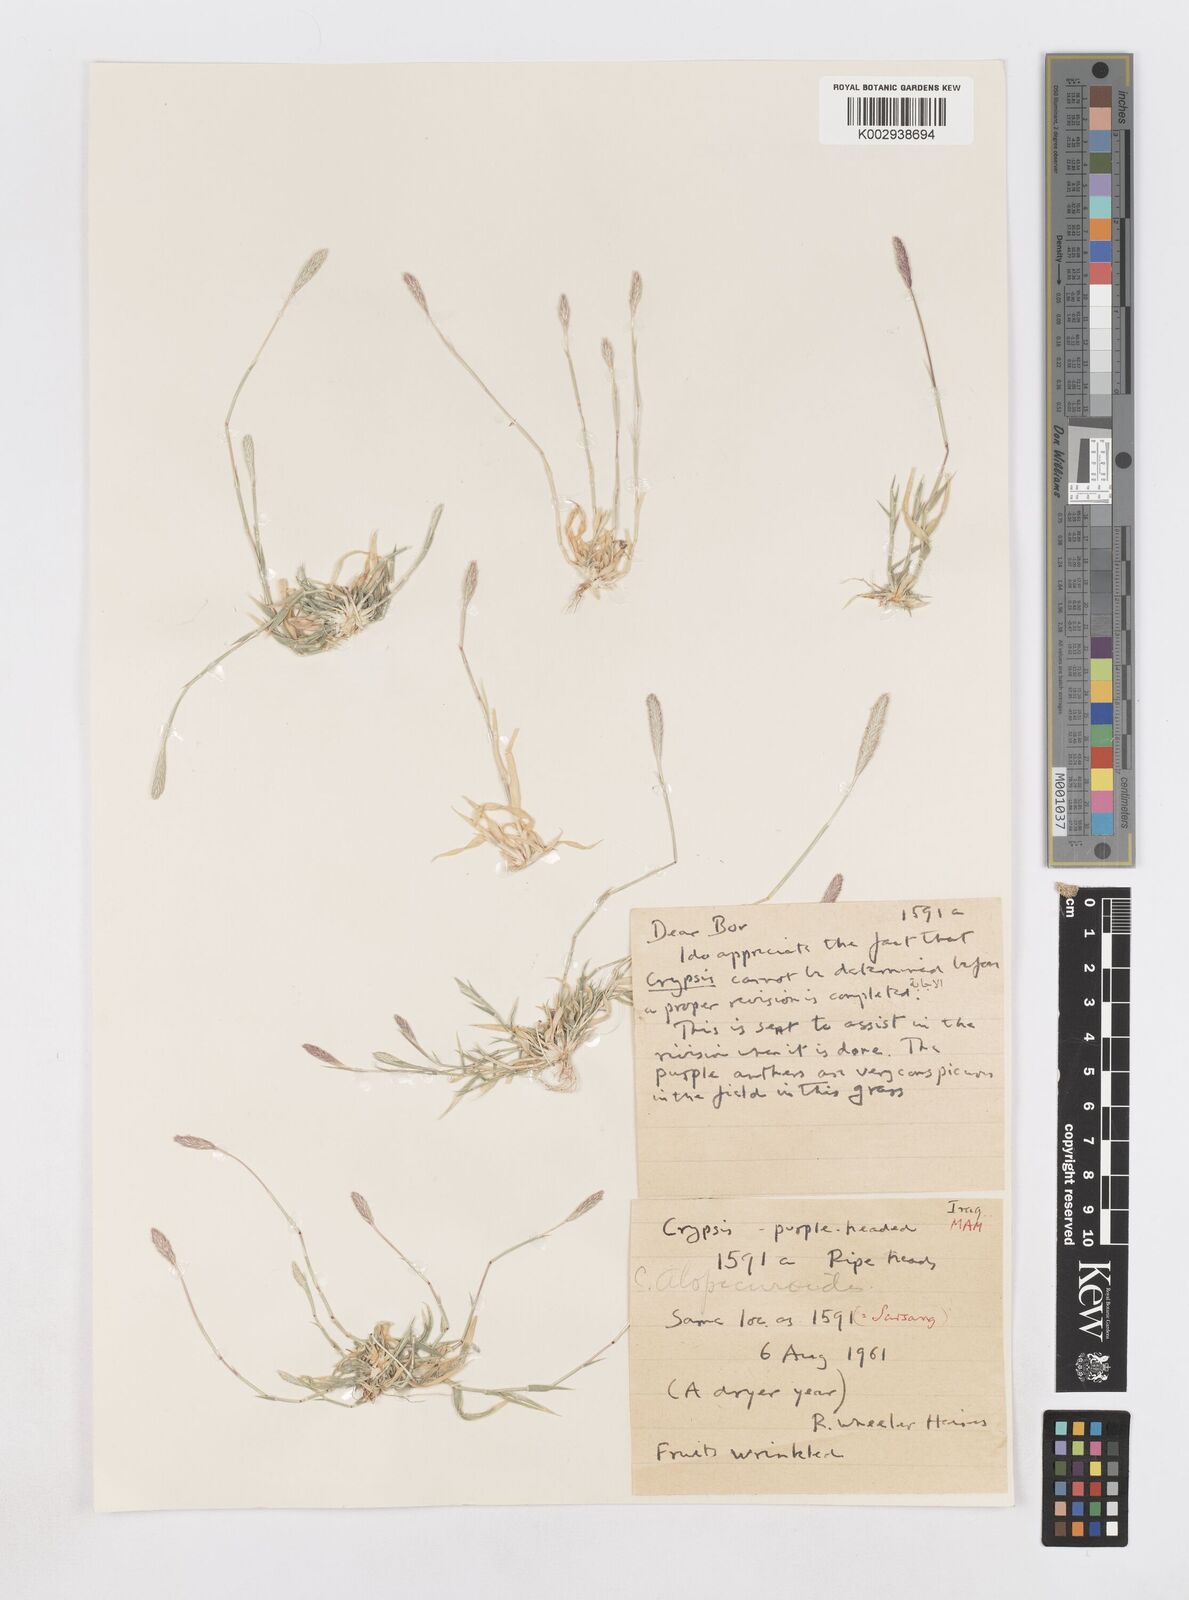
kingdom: Plantae
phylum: Tracheophyta
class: Liliopsida
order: Poales
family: Poaceae
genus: Sporobolus
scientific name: Sporobolus alopecuroides
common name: Foxtail pricklegrass
